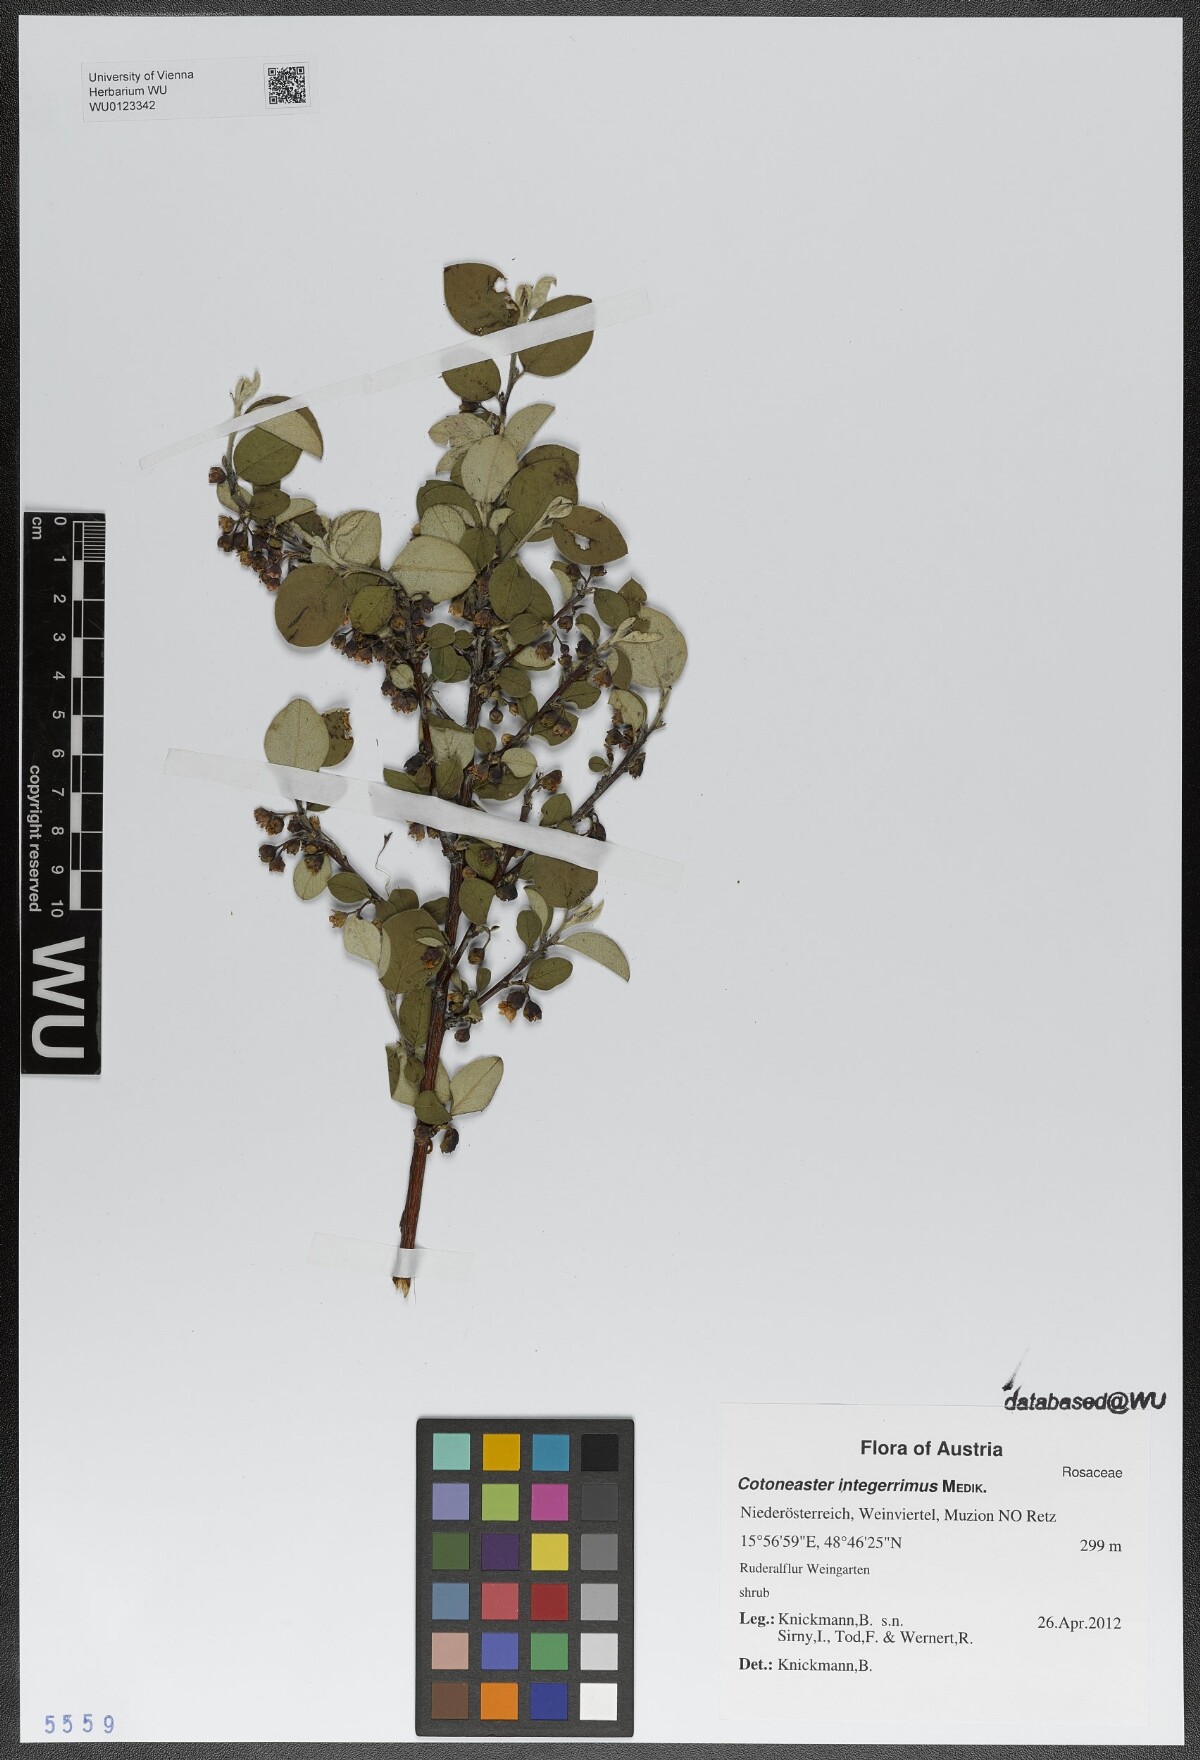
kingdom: Plantae
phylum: Tracheophyta
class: Magnoliopsida
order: Rosales
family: Rosaceae
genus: Cotoneaster
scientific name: Cotoneaster integerrimus
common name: Wild cotoneaster
